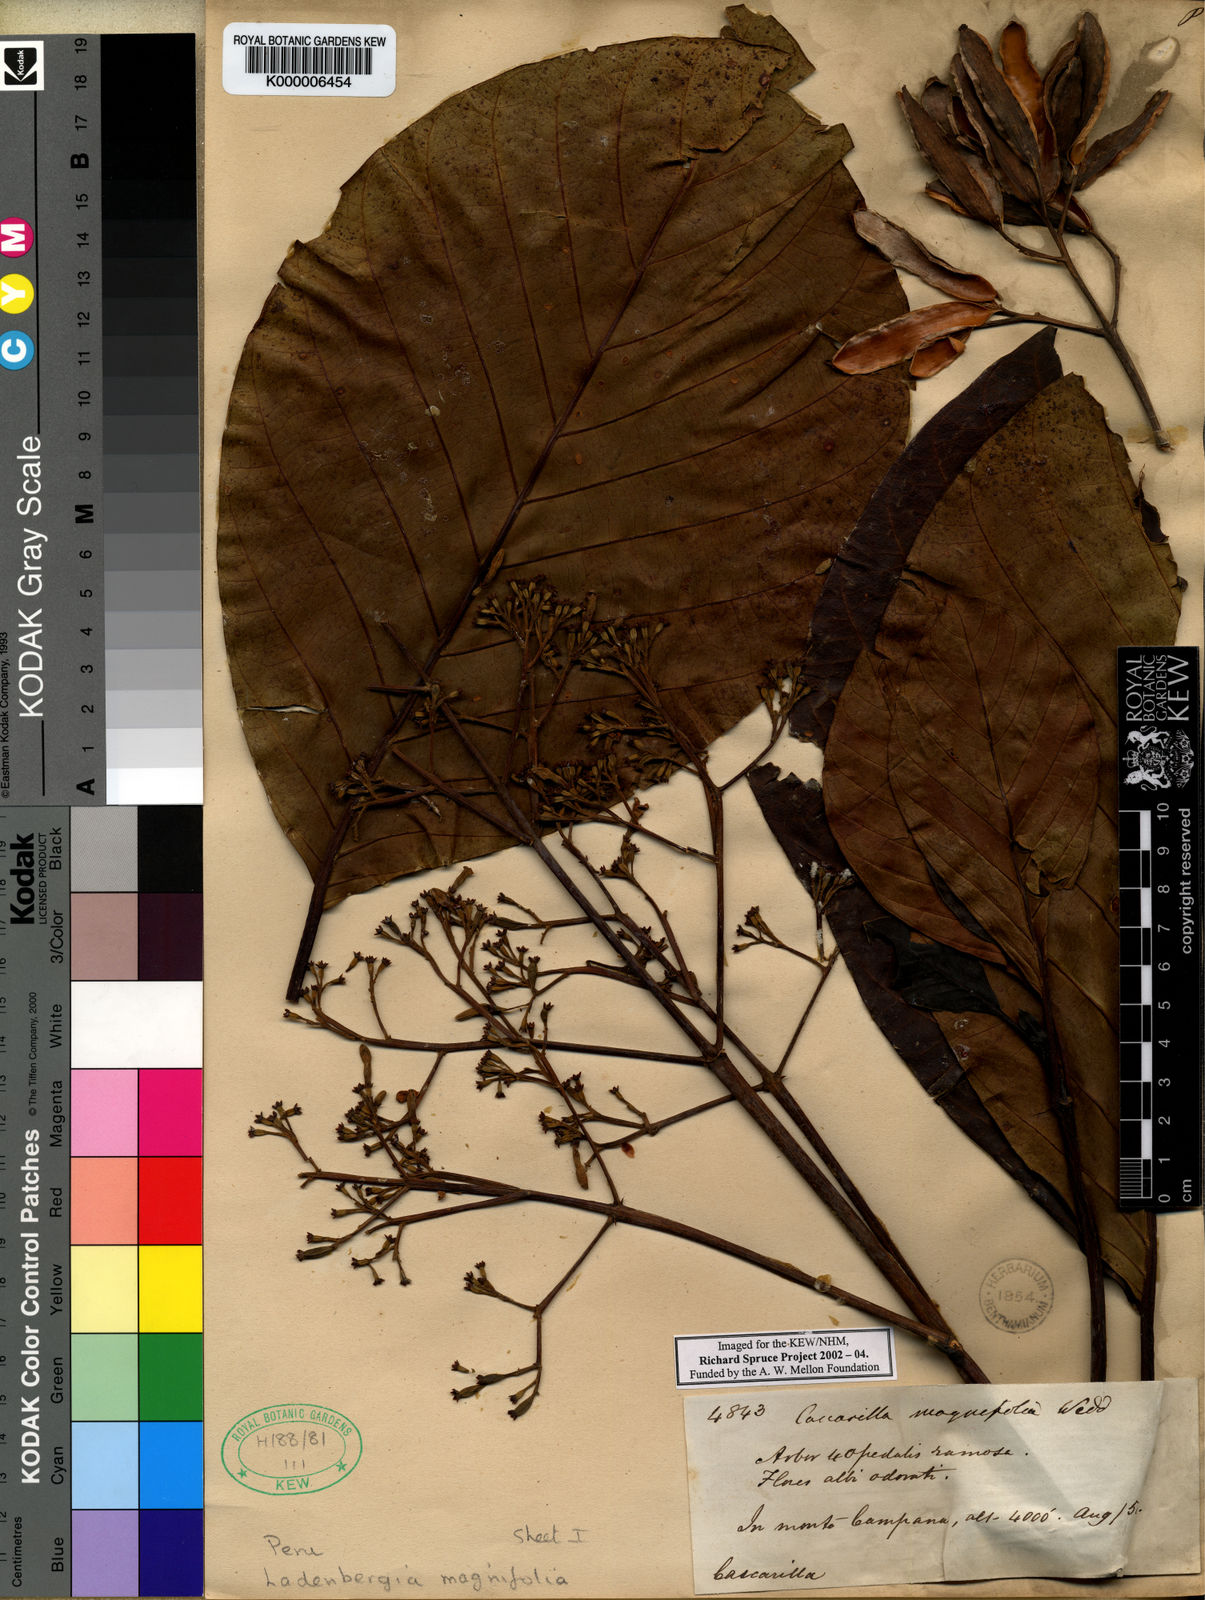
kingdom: Plantae
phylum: Tracheophyta
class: Magnoliopsida
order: Gentianales
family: Rubiaceae
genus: Ladenbergia
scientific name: Ladenbergia oblongifolia
